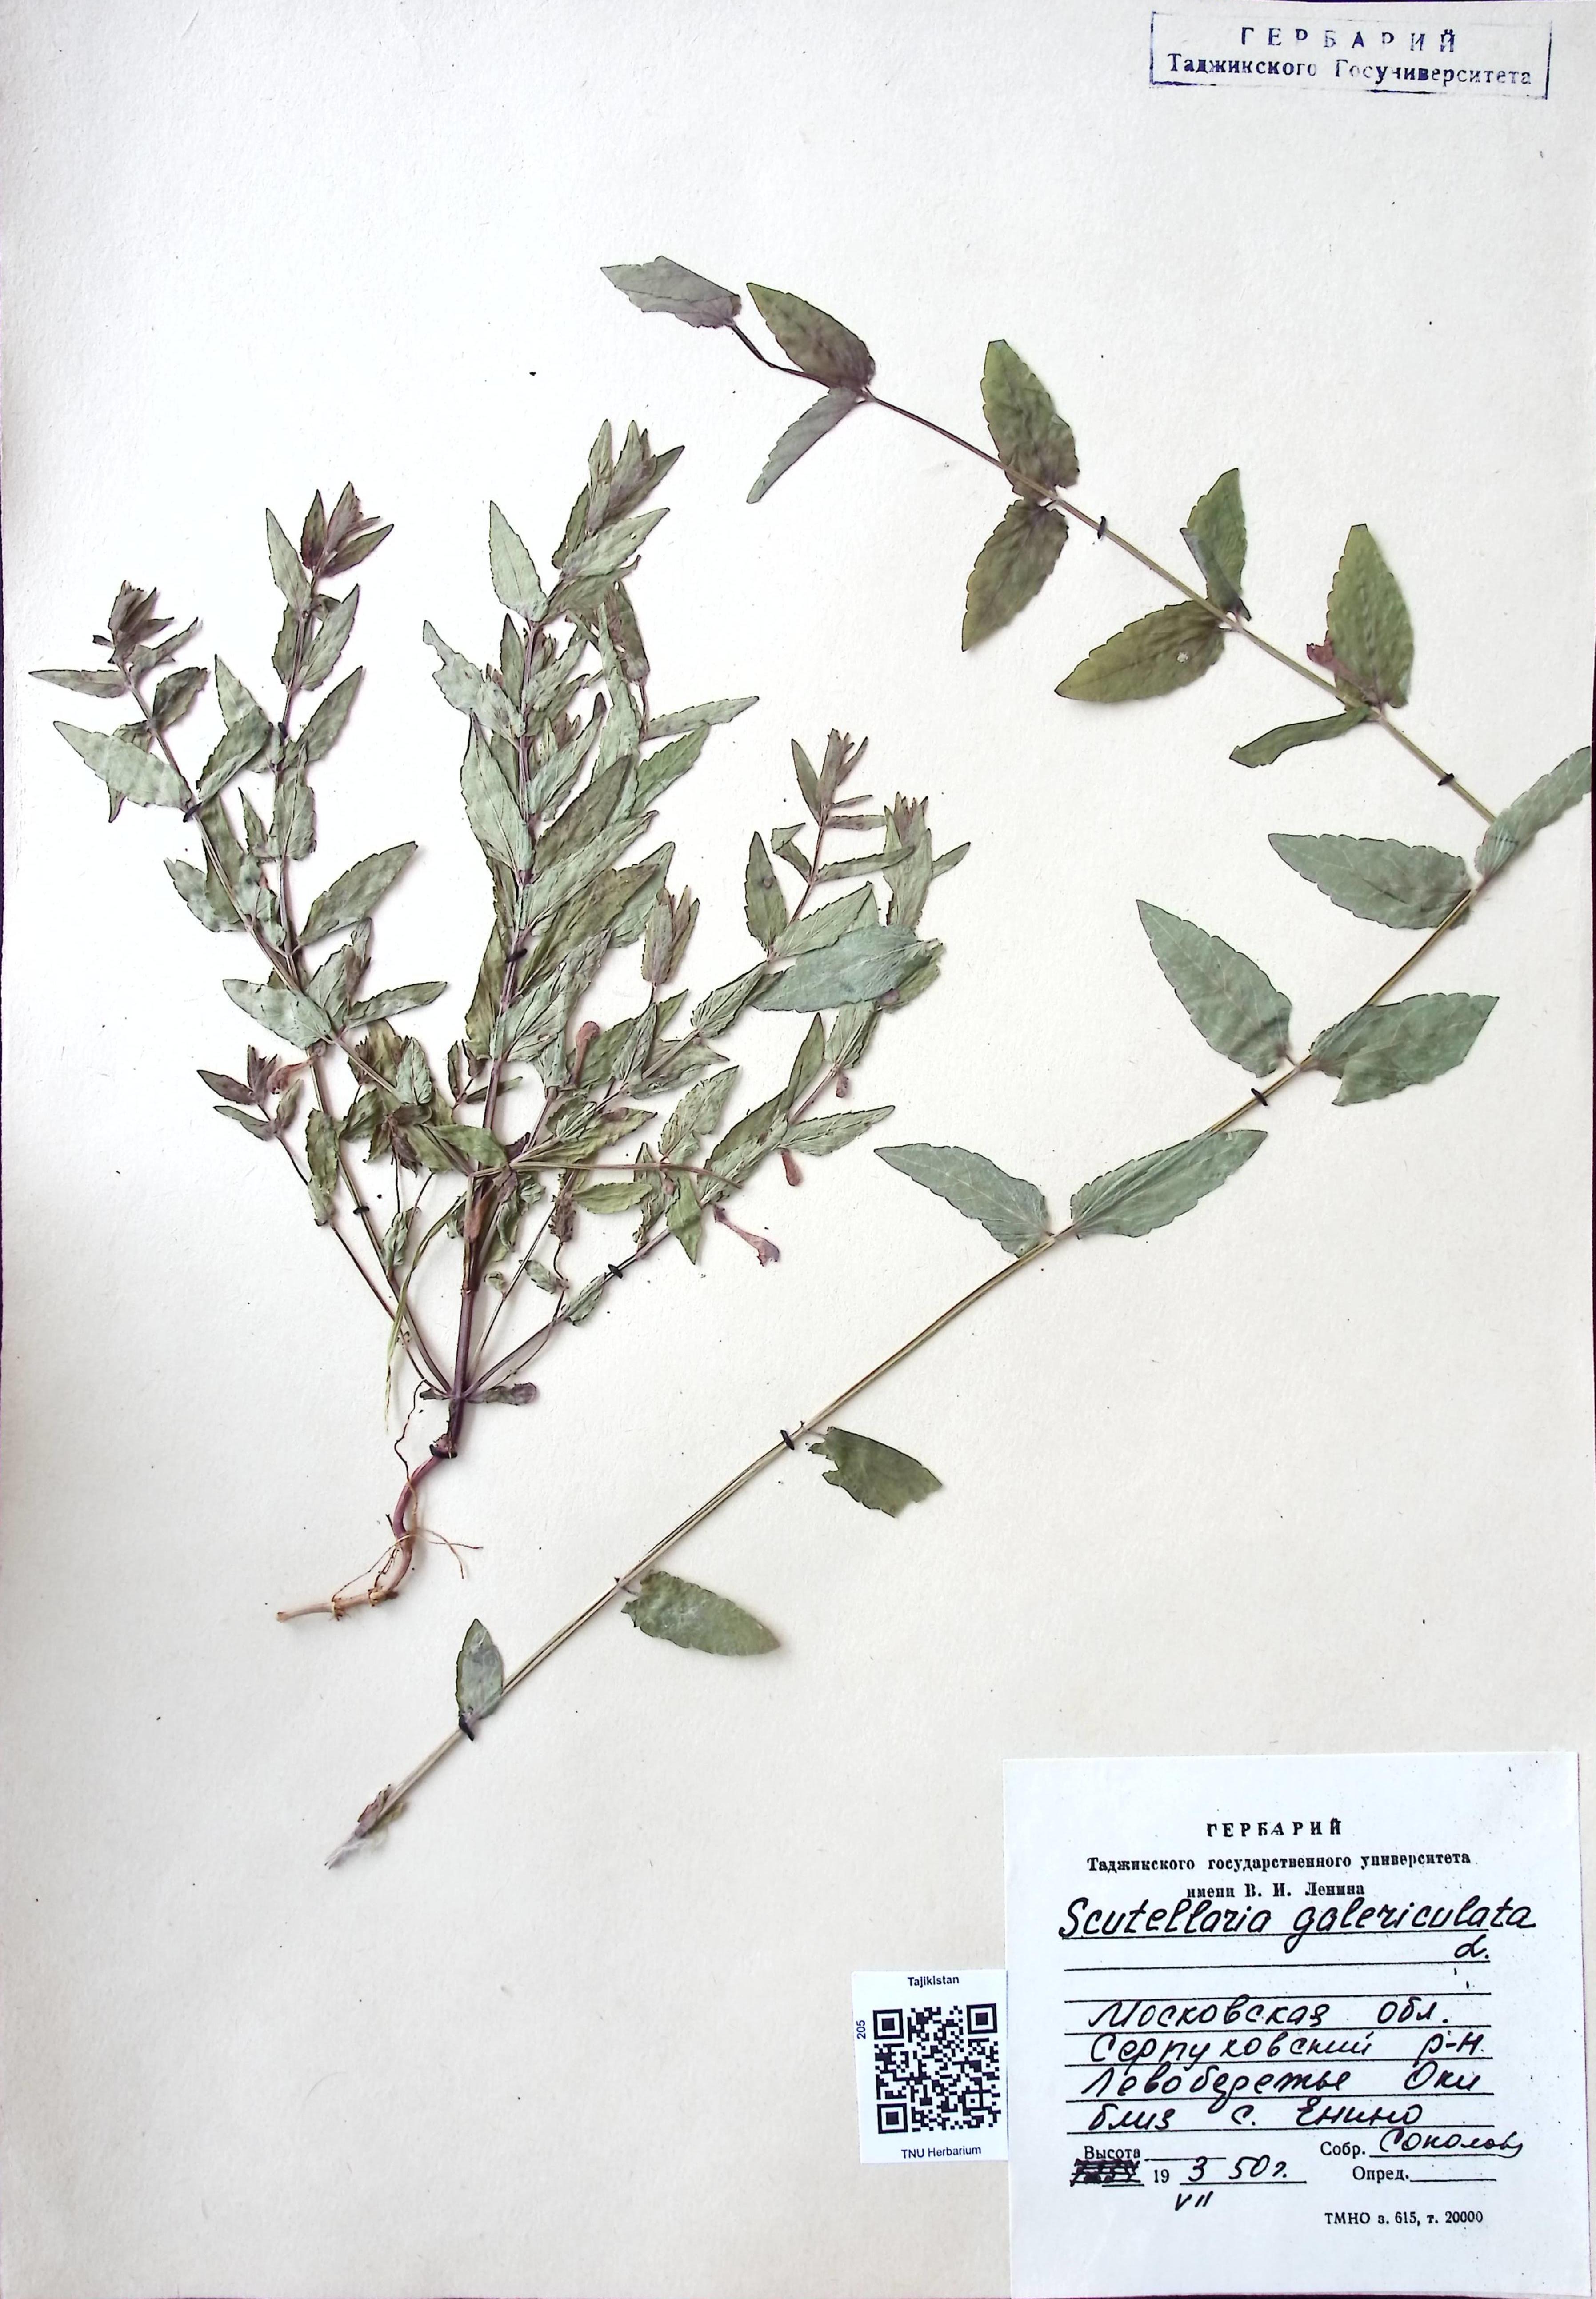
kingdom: Plantae
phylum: Tracheophyta
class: Magnoliopsida
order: Lamiales
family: Lamiaceae
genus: Scutellaria
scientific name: Scutellaria galericulata
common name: Skullcap
